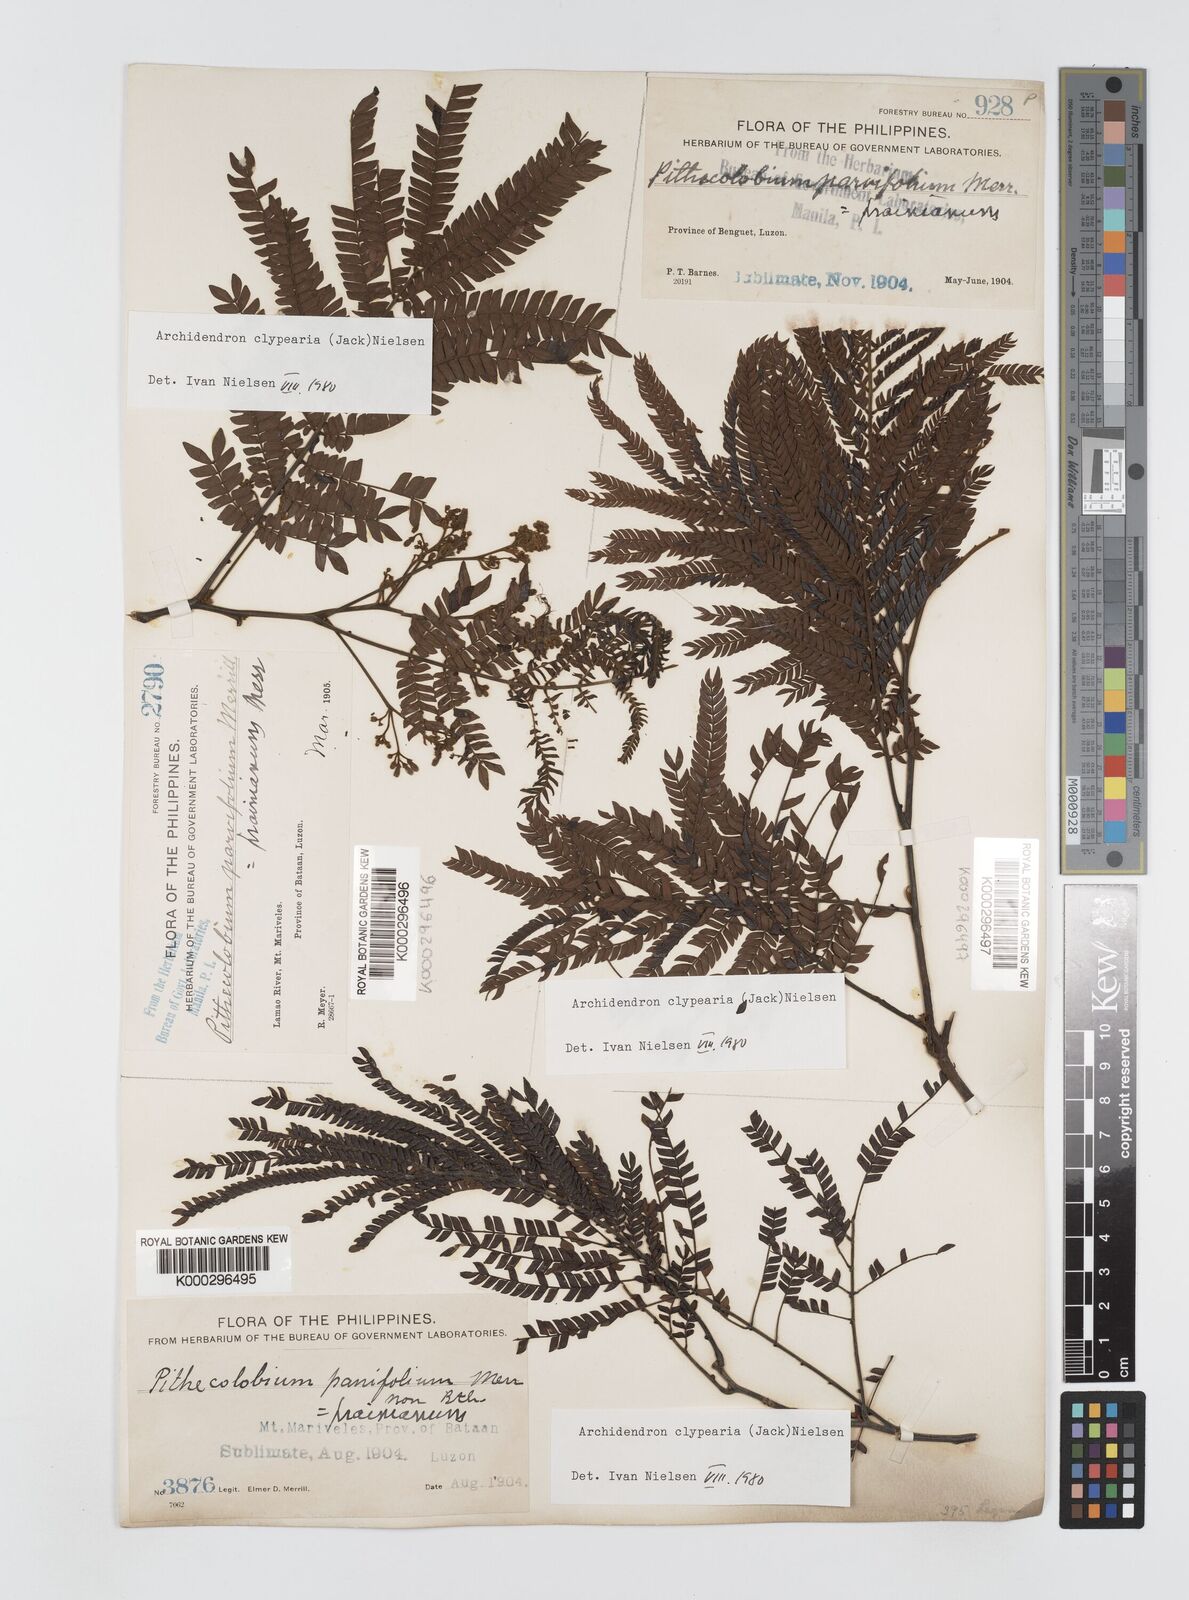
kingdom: Plantae
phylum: Tracheophyta
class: Magnoliopsida
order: Fabales
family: Fabaceae
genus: Archidendron
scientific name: Archidendron clypearia
